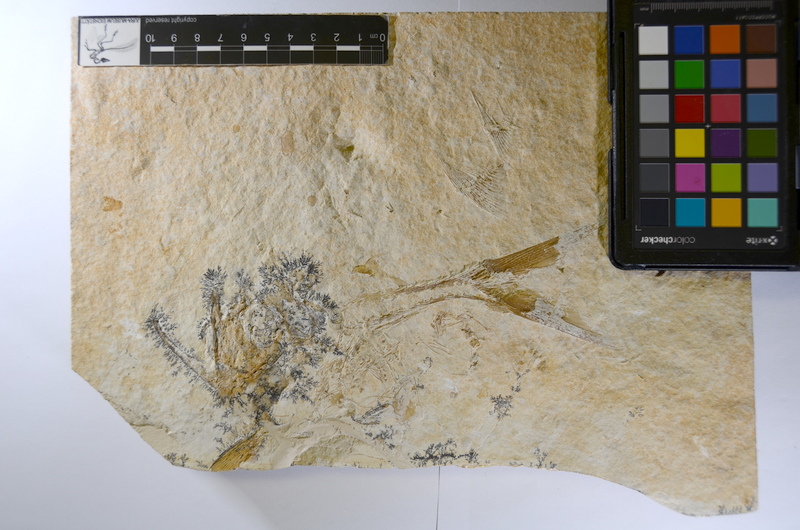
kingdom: Animalia
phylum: Chordata
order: Amiiformes
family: Caturidae
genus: Caturus
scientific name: Caturus
